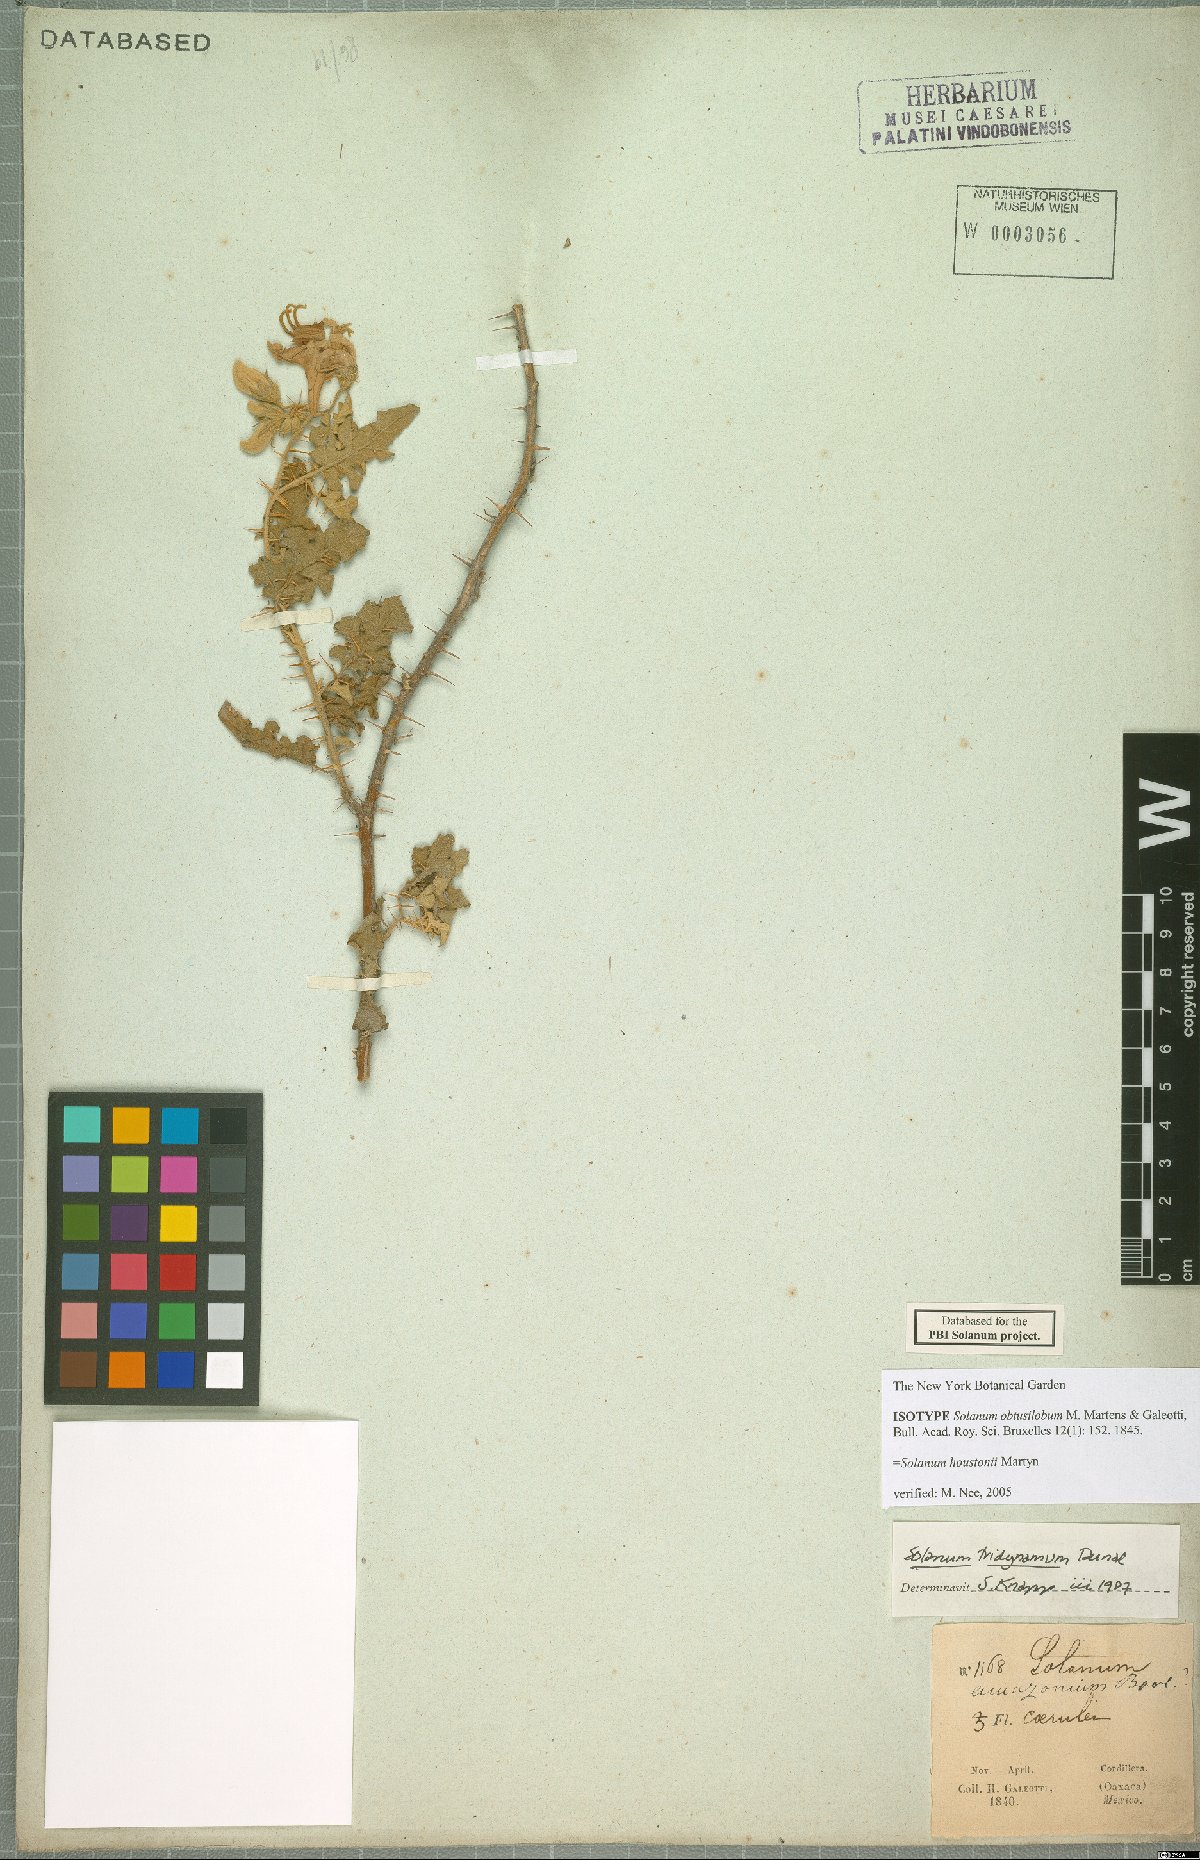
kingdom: Plantae
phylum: Tracheophyta
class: Magnoliopsida
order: Solanales
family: Solanaceae
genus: Solanum
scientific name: Solanum houstonii
